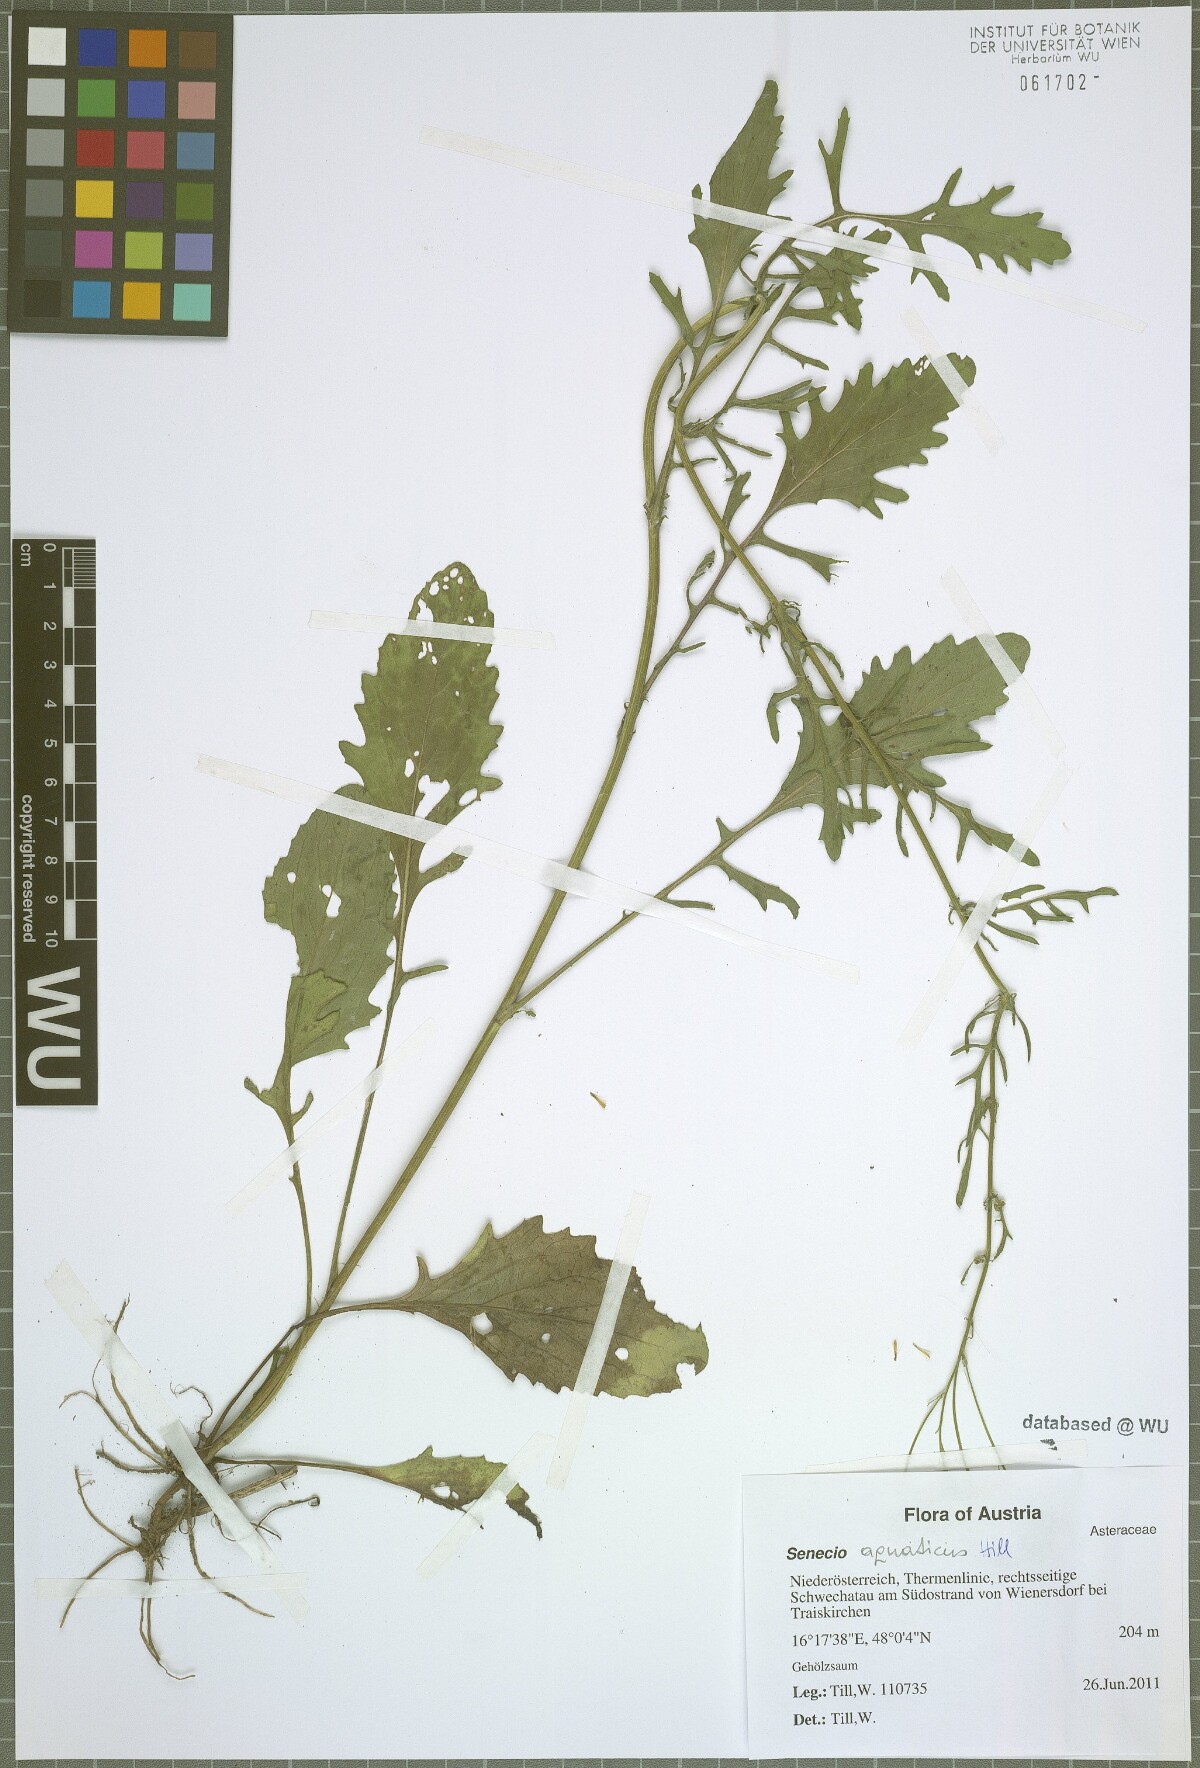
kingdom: Plantae
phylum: Tracheophyta
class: Magnoliopsida
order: Asterales
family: Asteraceae
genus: Jacobaea
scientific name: Jacobaea erratica
